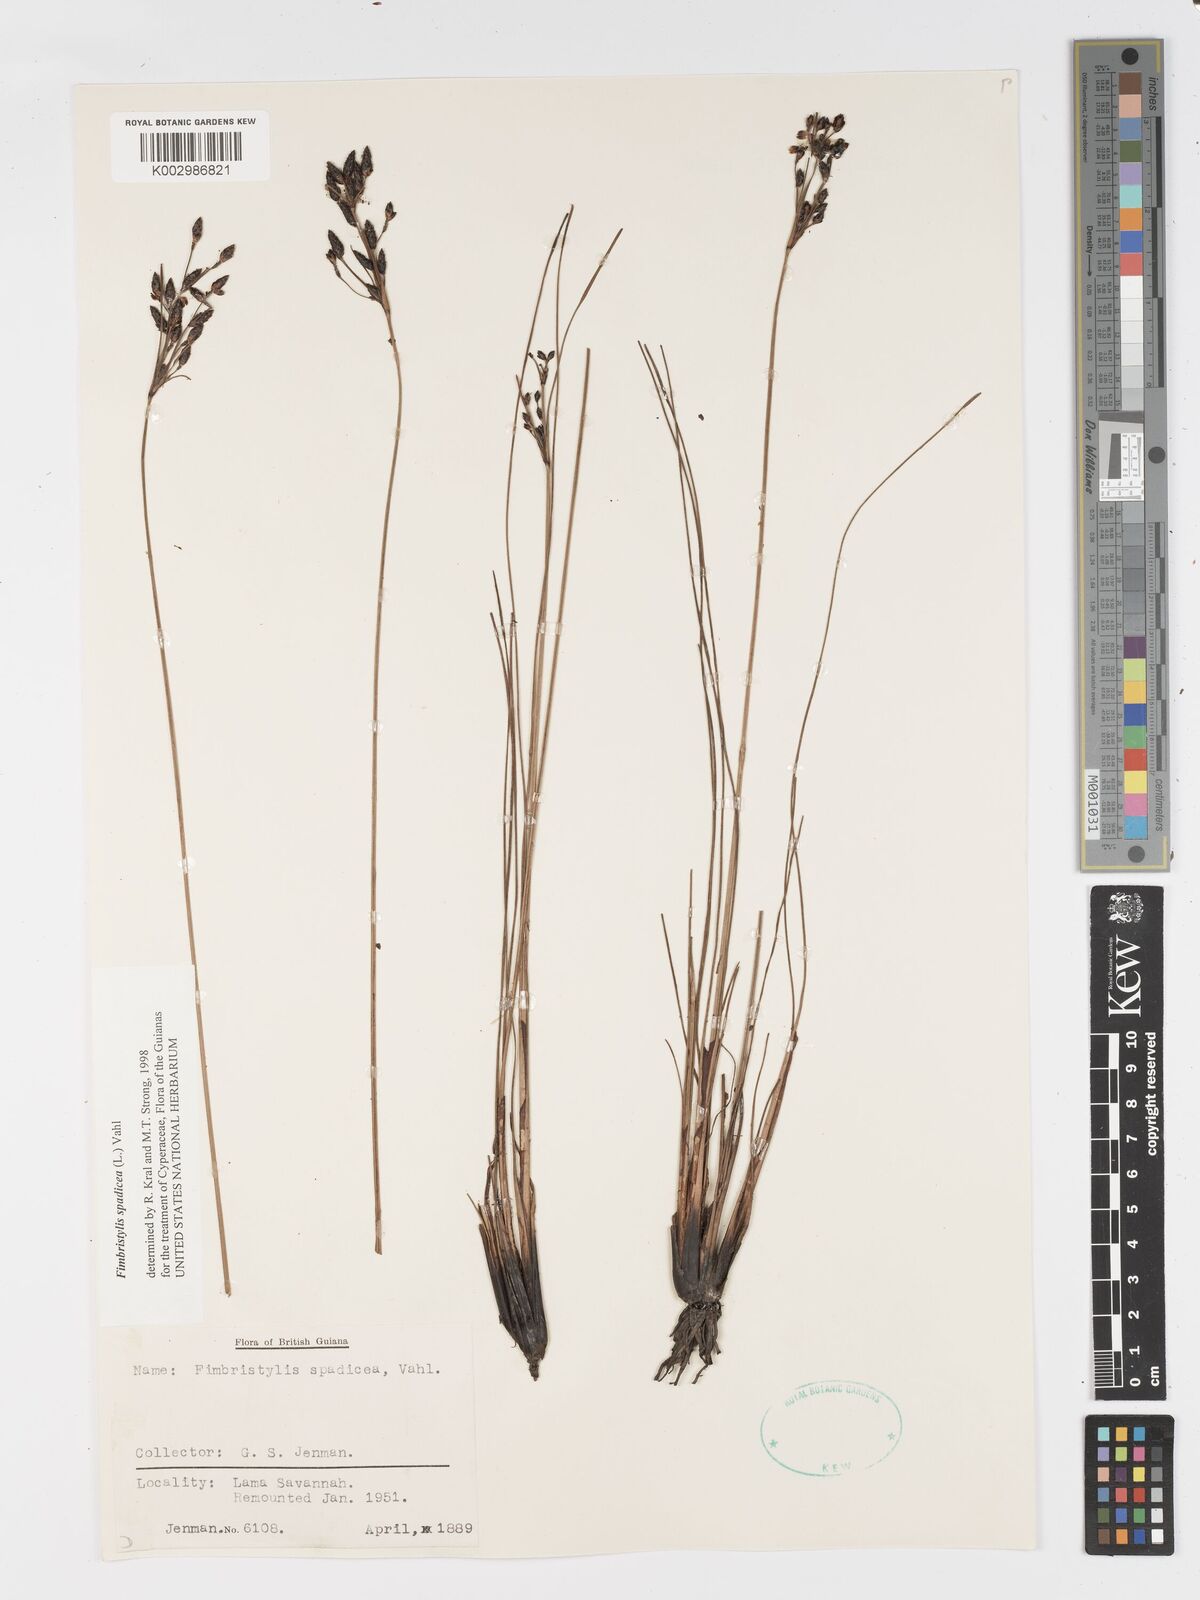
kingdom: Plantae
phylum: Tracheophyta
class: Liliopsida
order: Poales
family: Cyperaceae
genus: Fimbristylis
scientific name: Fimbristylis spadicea
